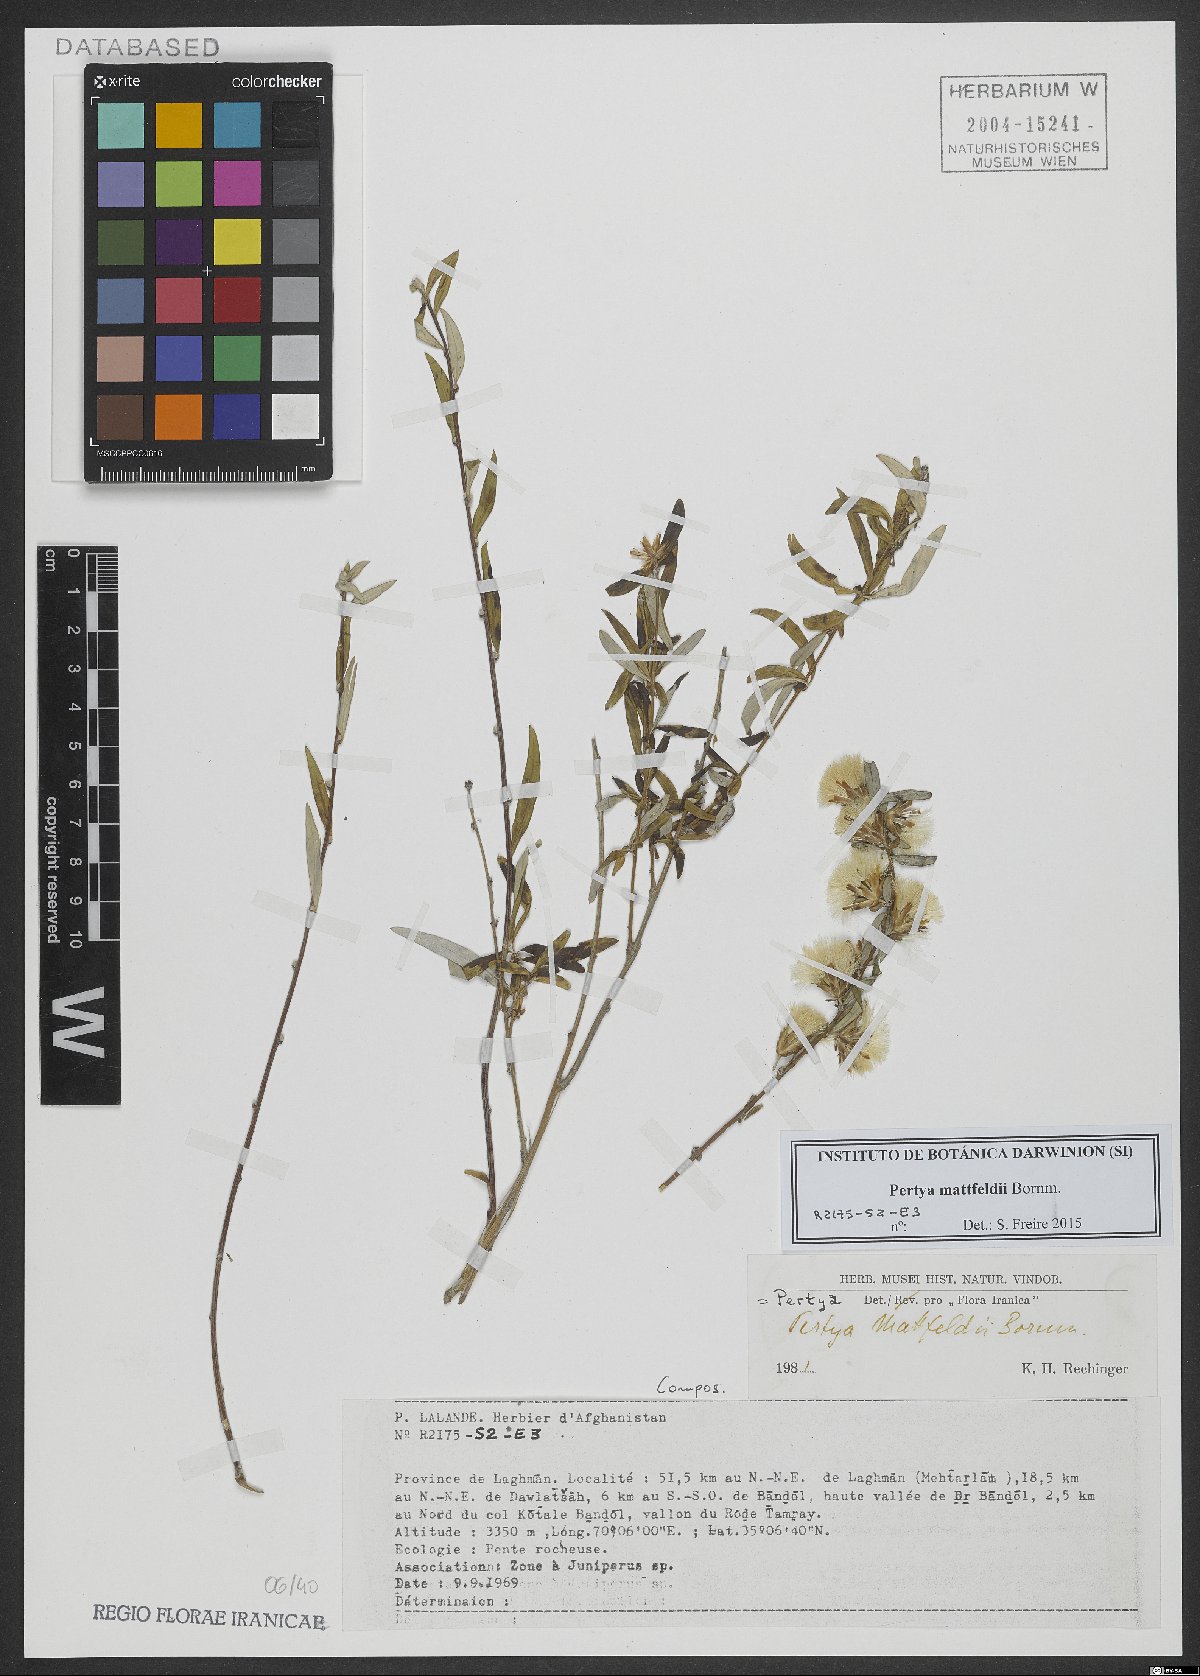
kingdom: Plantae
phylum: Tracheophyta
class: Magnoliopsida
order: Asterales
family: Asteraceae
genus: Pertya
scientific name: Pertya mattfeldii
